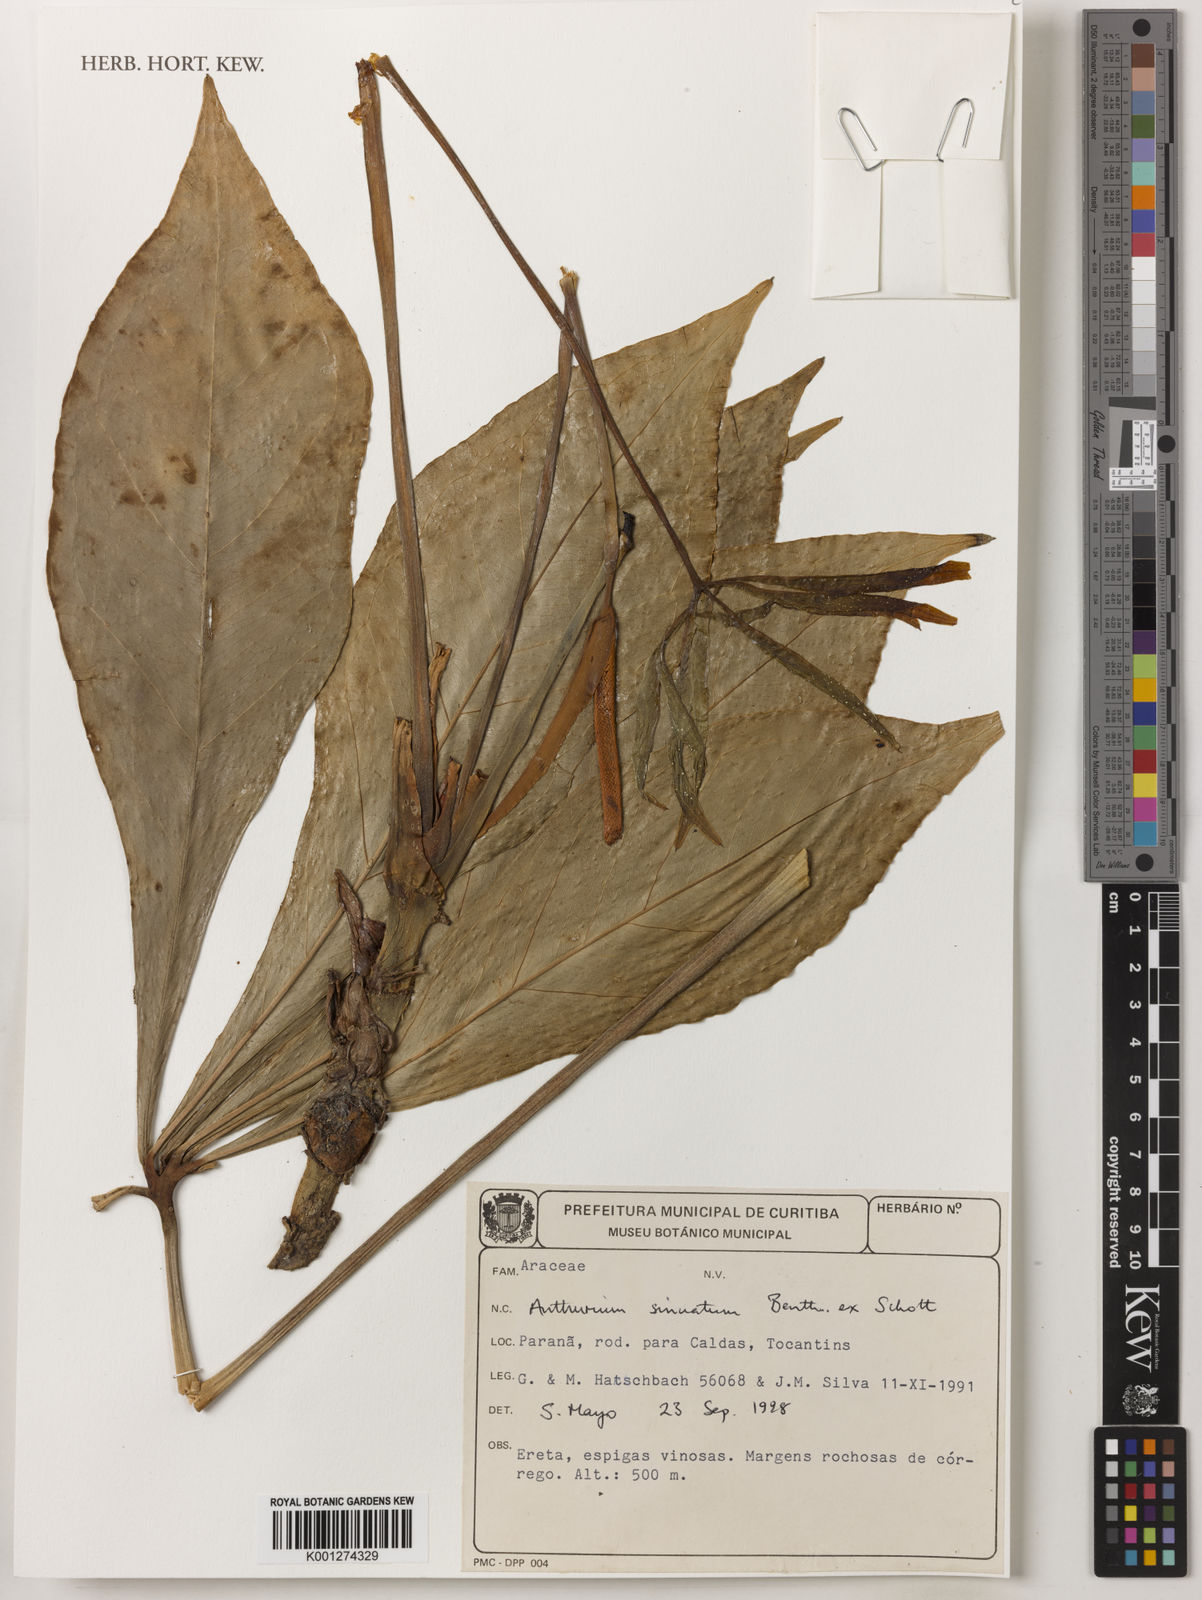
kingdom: Plantae
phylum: Tracheophyta
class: Liliopsida
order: Alismatales
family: Araceae
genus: Anthurium
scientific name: Anthurium
